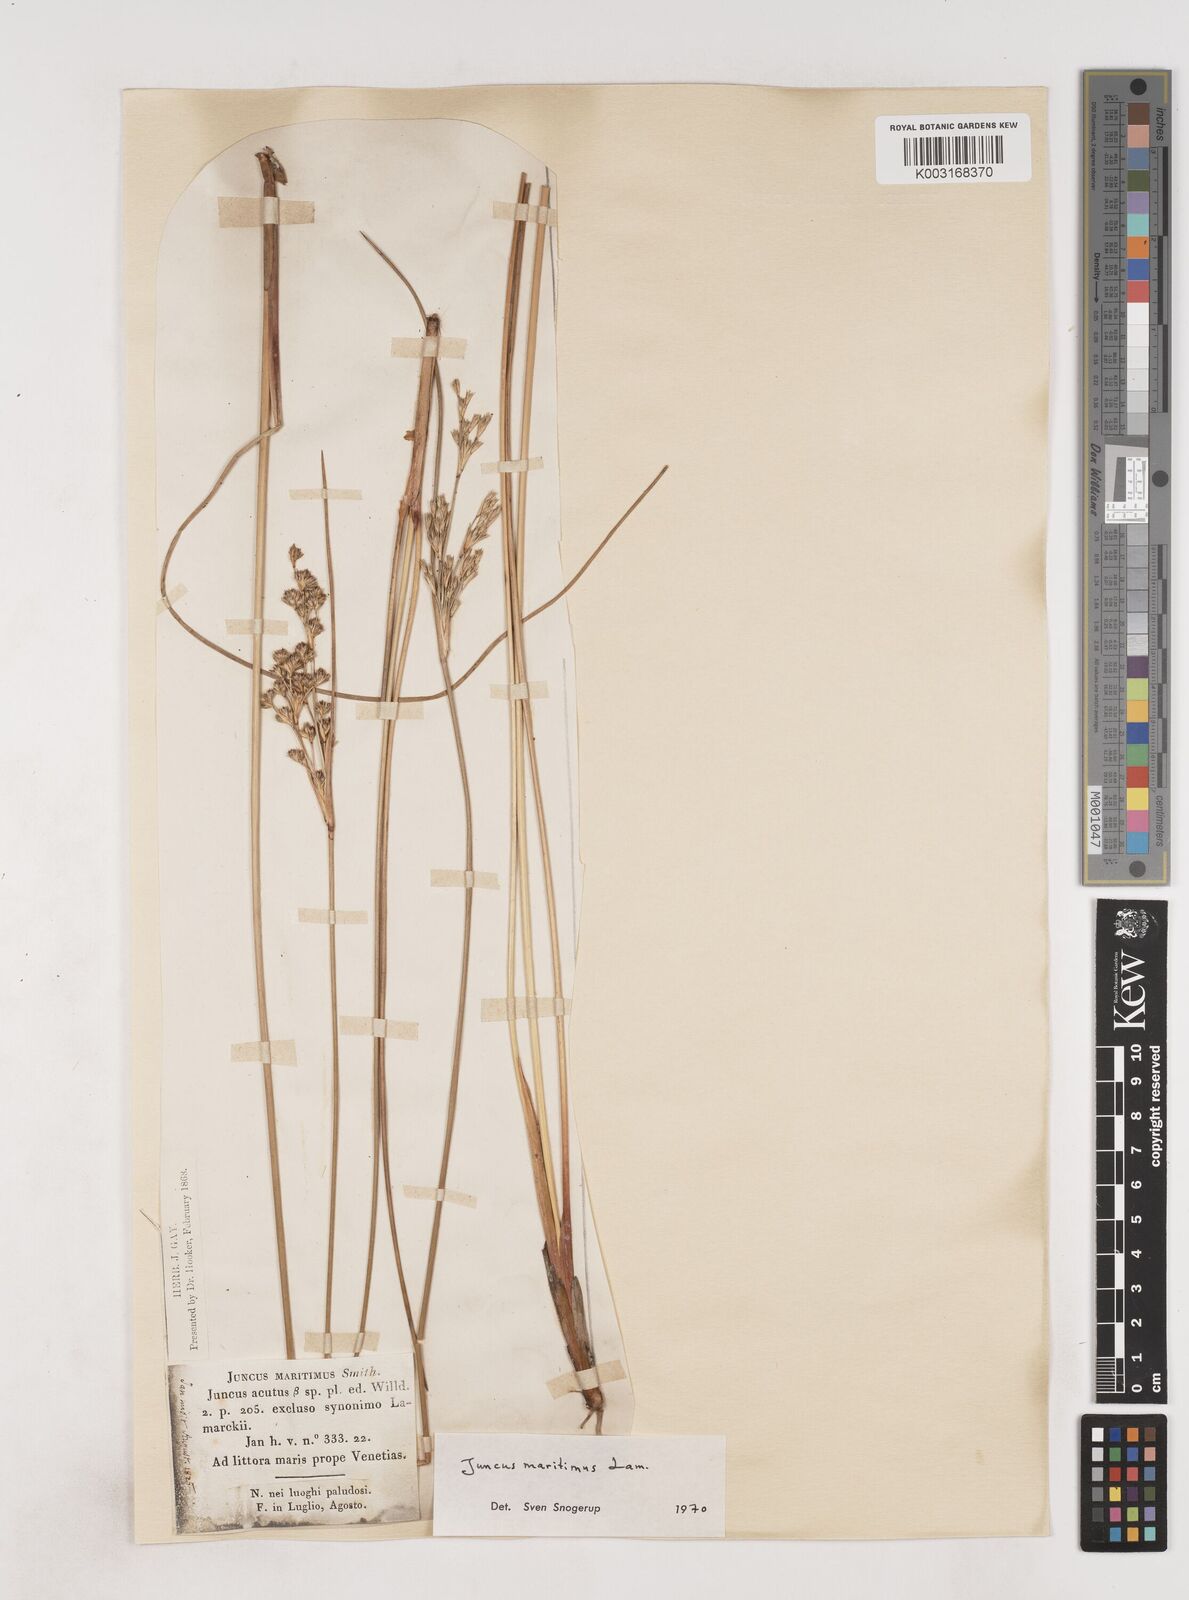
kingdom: Plantae
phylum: Tracheophyta
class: Liliopsida
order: Poales
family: Juncaceae
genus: Luzula
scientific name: Luzula sylvatica
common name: Great wood-rush
